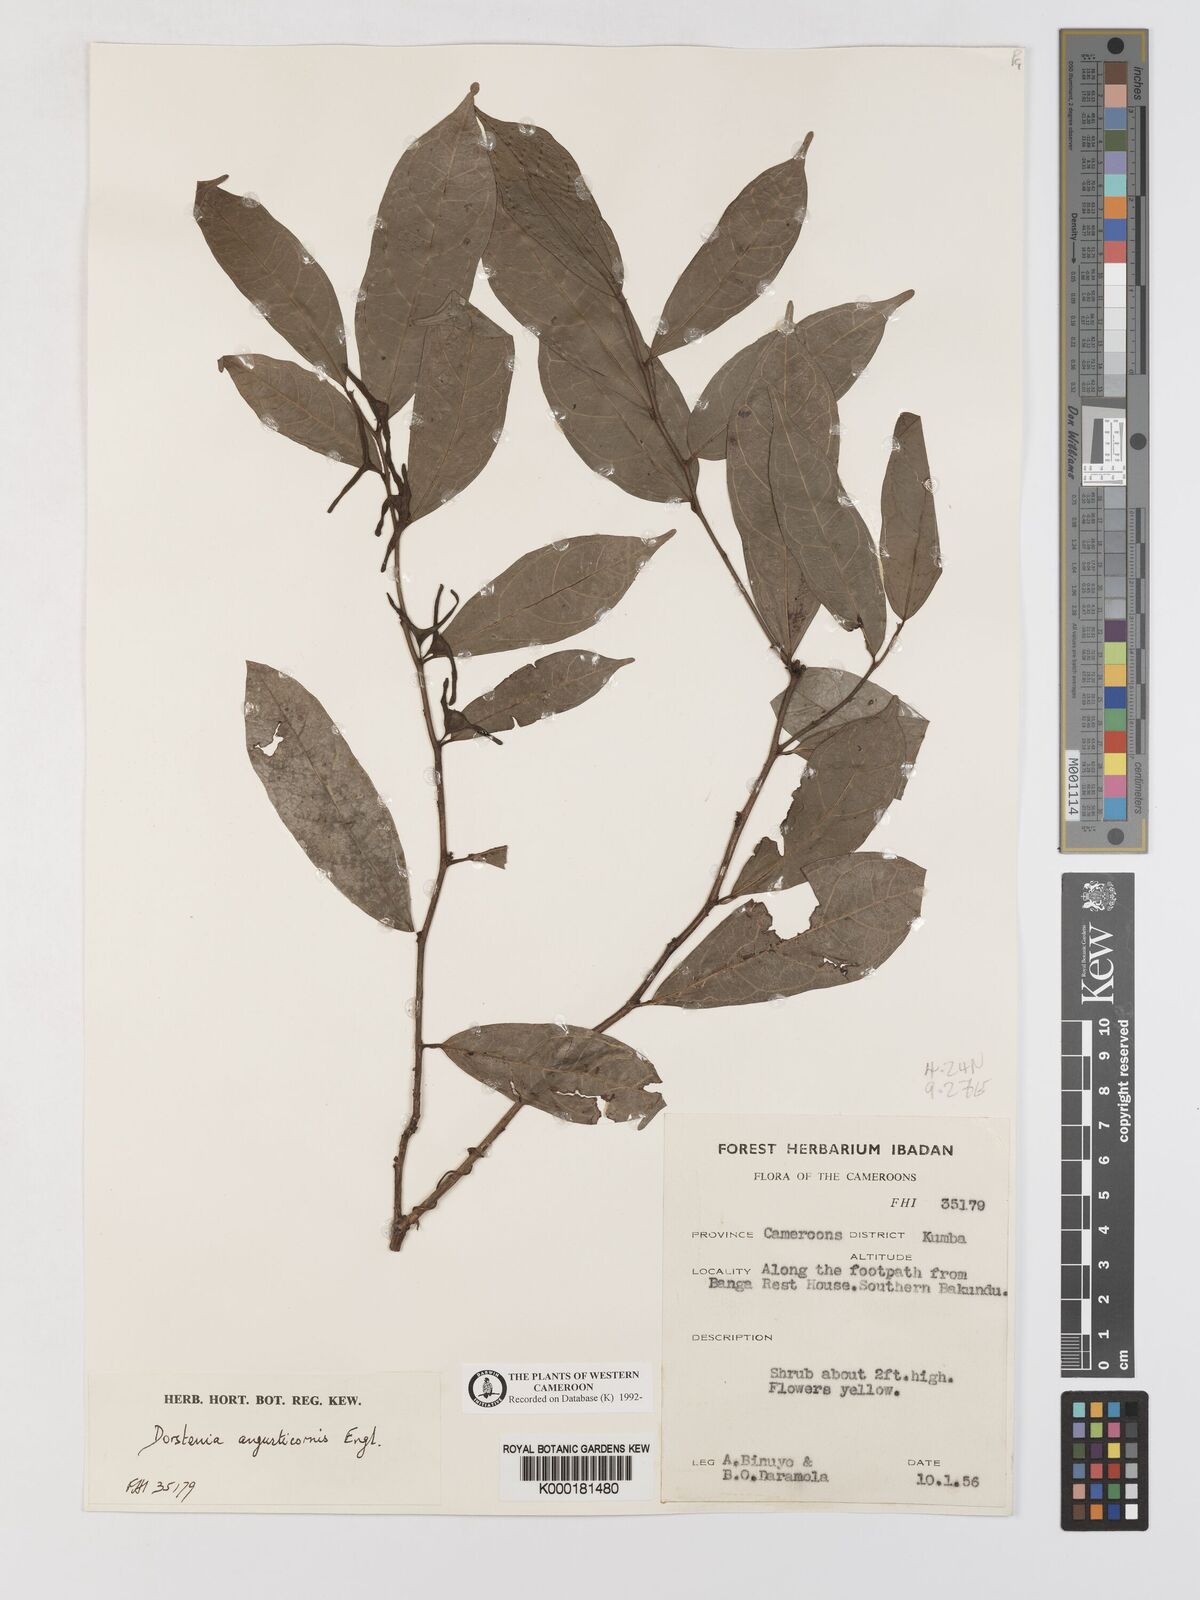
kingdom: Plantae
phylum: Tracheophyta
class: Magnoliopsida
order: Rosales
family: Moraceae
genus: Hijmania
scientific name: Hijmania angusticornis
